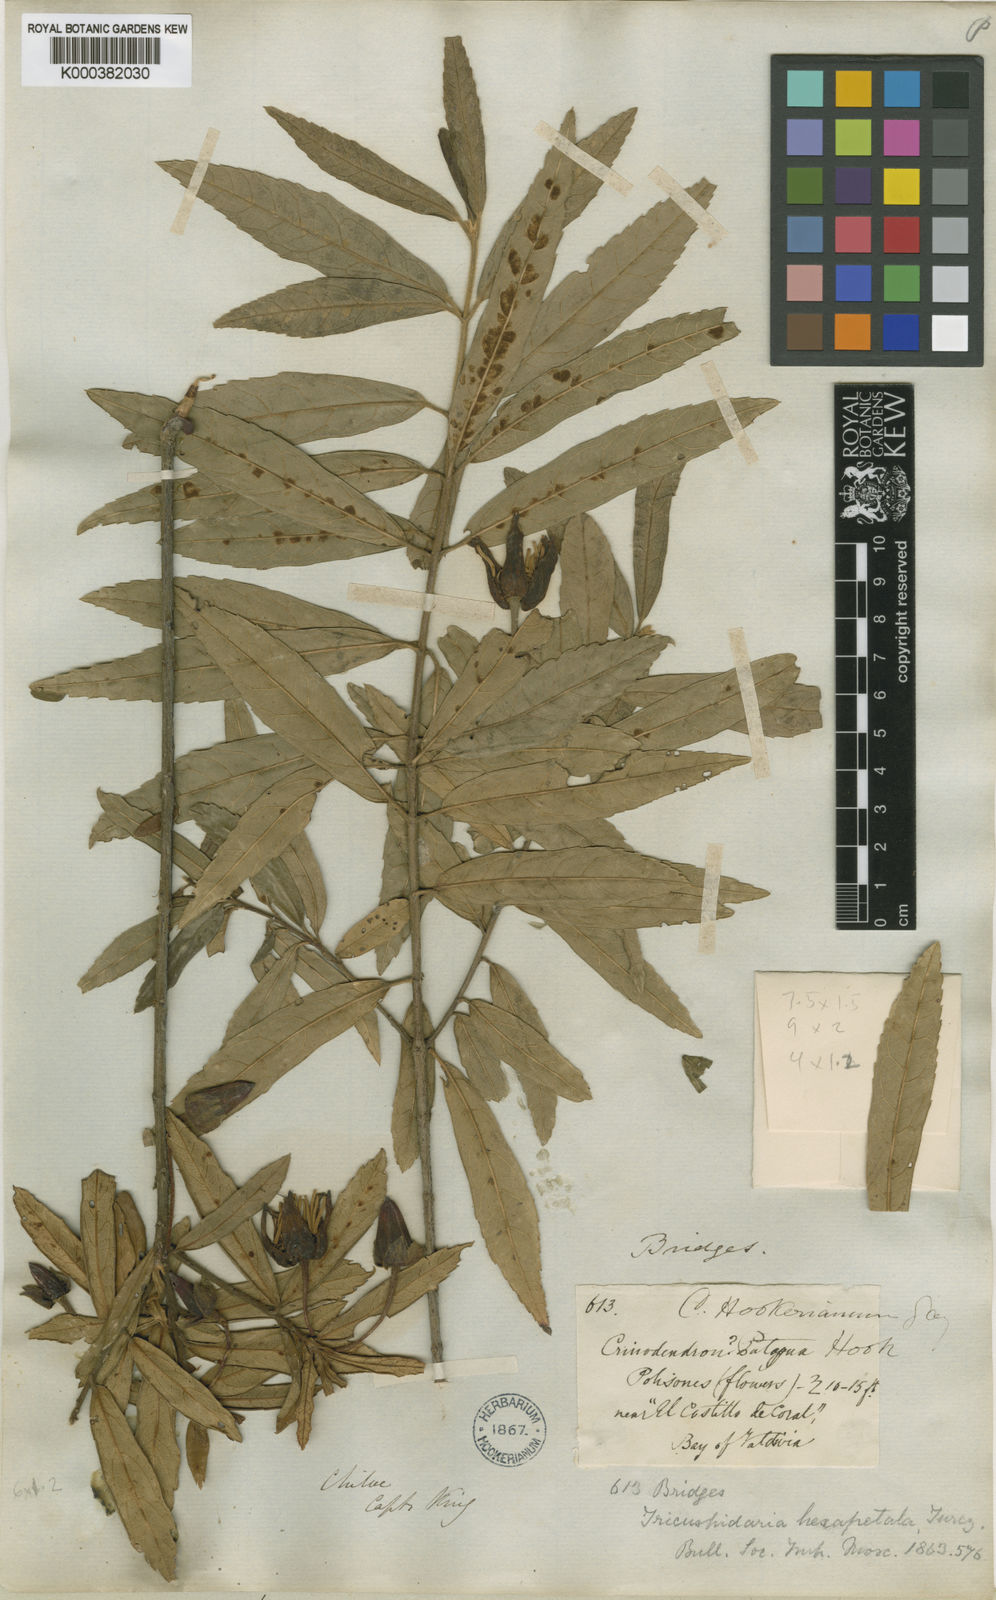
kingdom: Plantae
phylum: Tracheophyta
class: Magnoliopsida
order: Oxalidales
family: Elaeocarpaceae
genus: Crinodendron
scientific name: Crinodendron hookerianum
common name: Lanterntree
